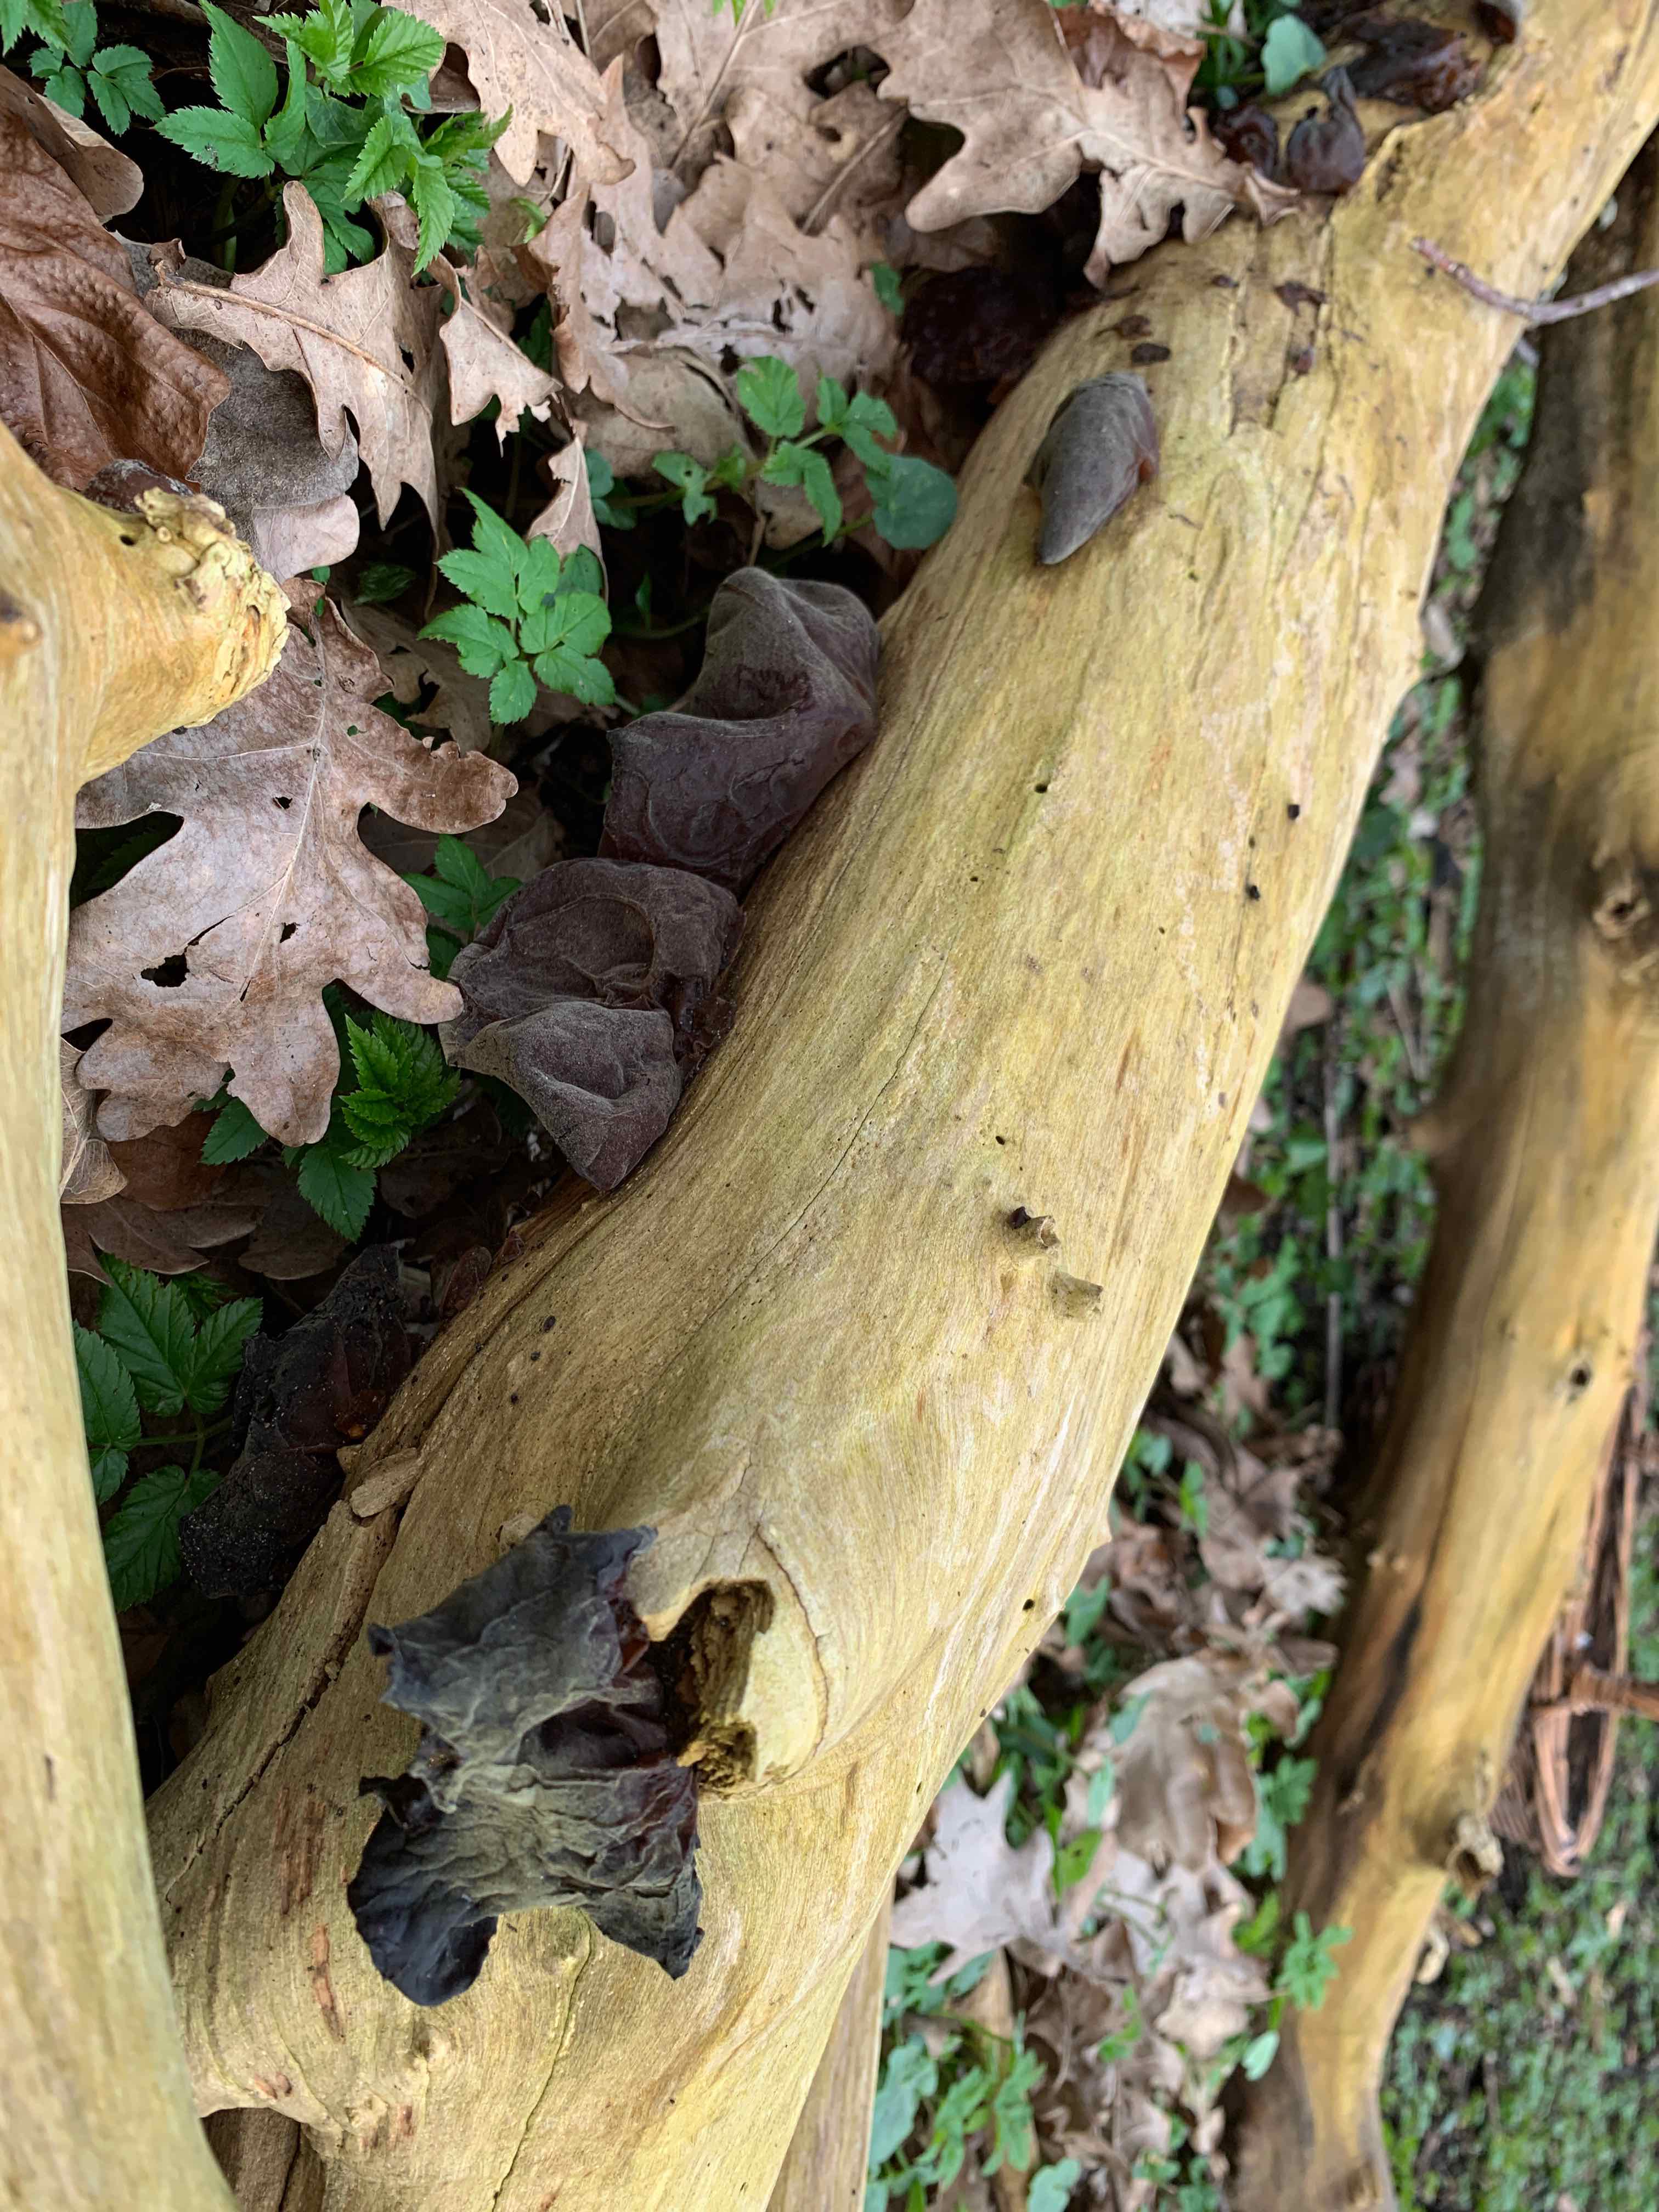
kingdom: Fungi
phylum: Basidiomycota
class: Agaricomycetes
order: Auriculariales
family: Auriculariaceae
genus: Auricularia
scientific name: Auricularia auricula-judae
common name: almindelig judasøre
